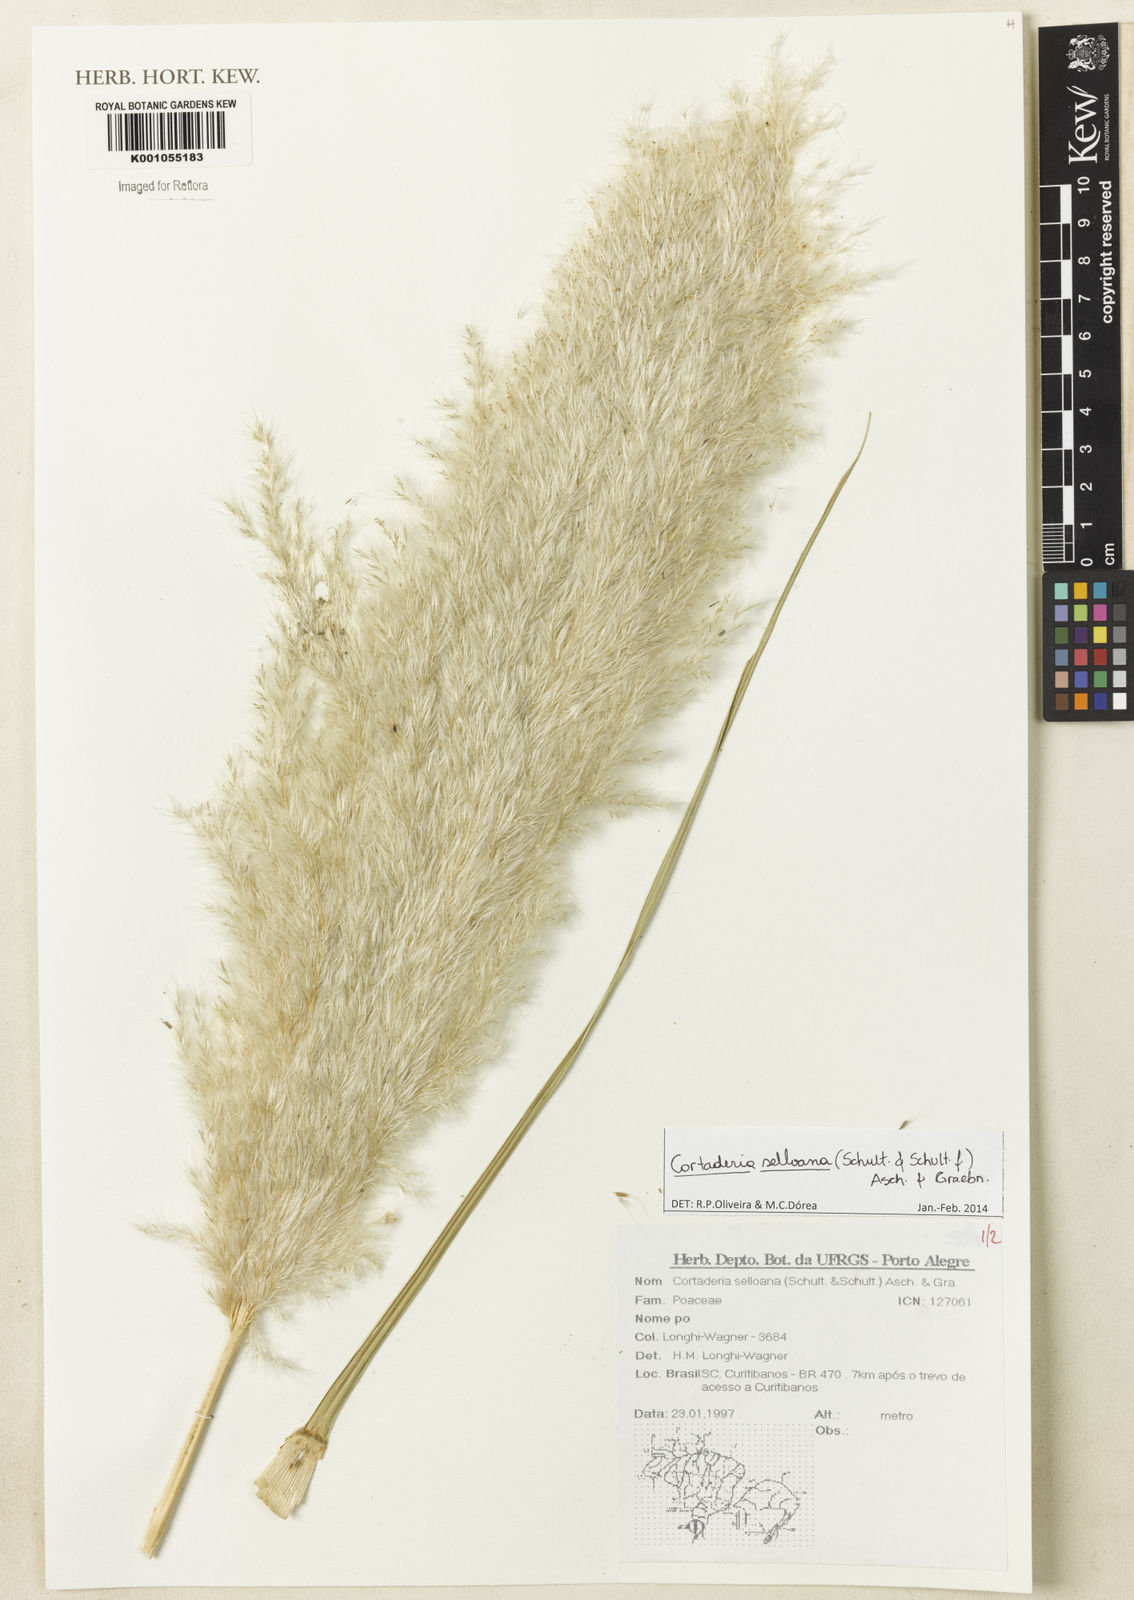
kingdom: Plantae
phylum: Tracheophyta
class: Liliopsida
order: Poales
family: Poaceae
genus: Cortaderia
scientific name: Cortaderia selloana
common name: Uruguayan pampas grass
